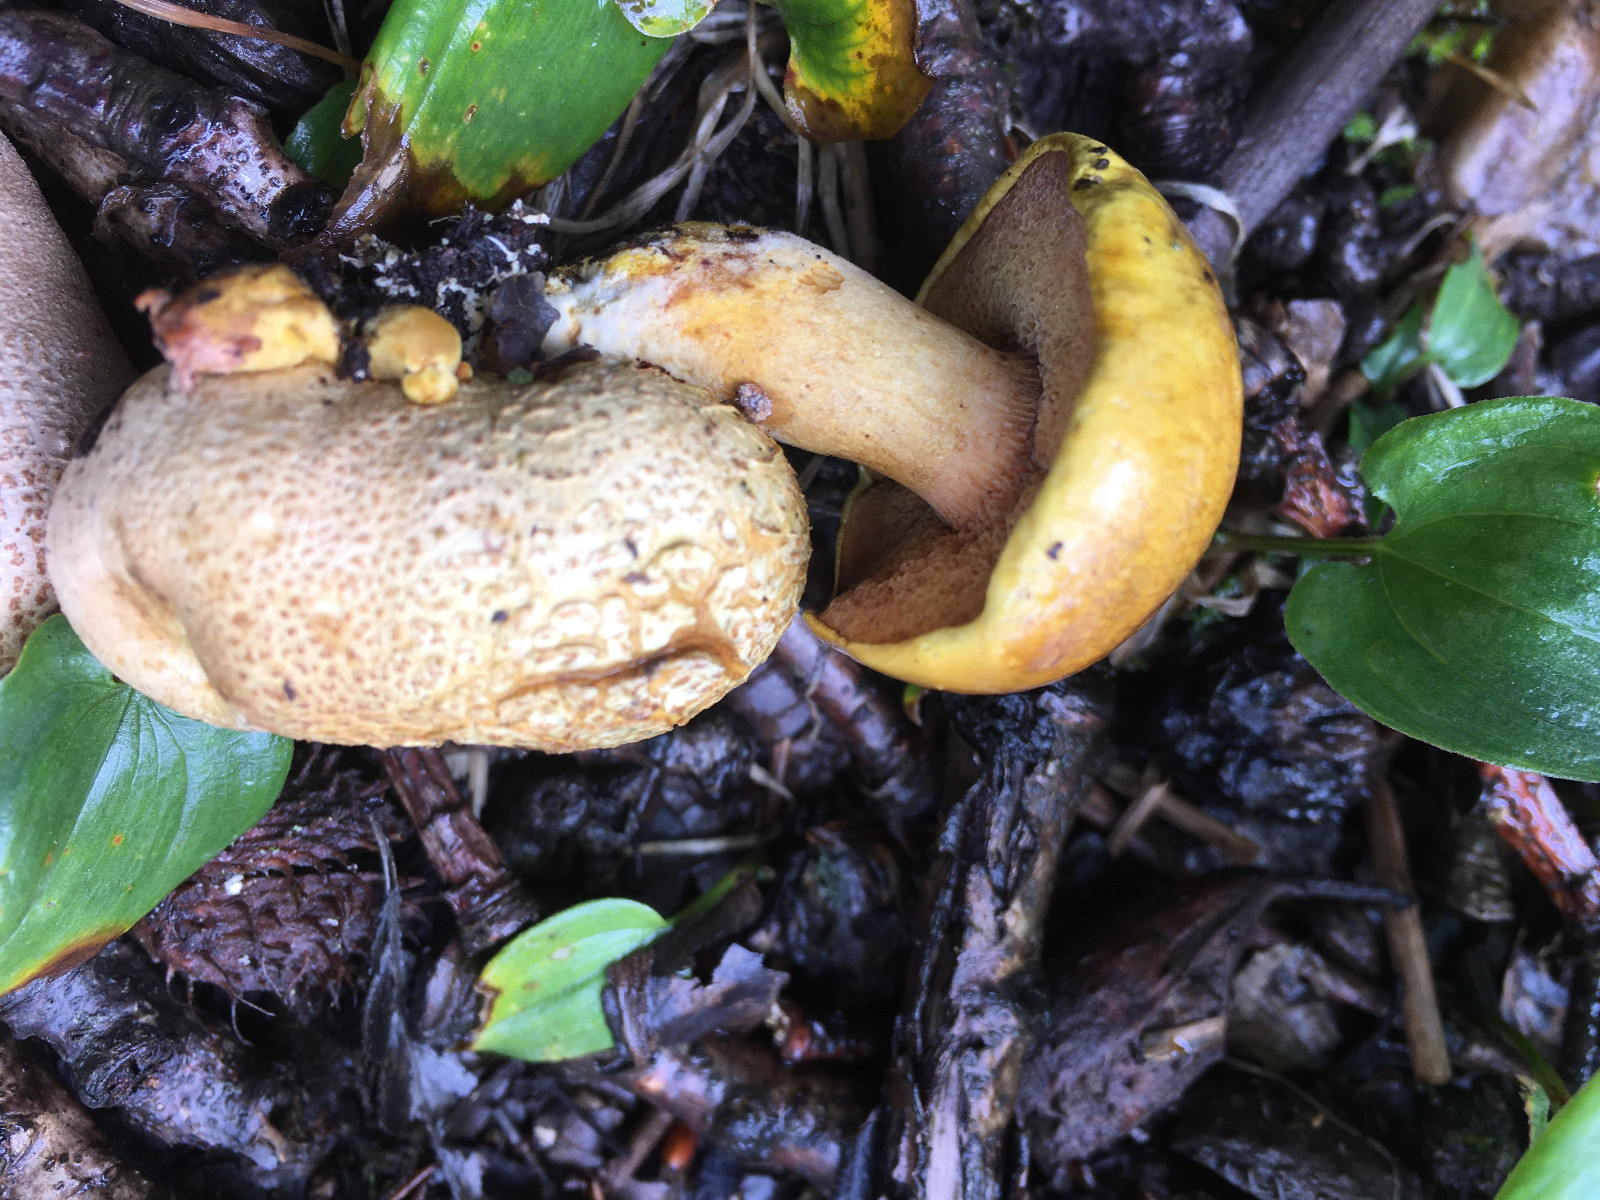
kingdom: Fungi
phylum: Basidiomycota
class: Agaricomycetes
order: Boletales
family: Boletaceae
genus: Pseudoboletus
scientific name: Pseudoboletus parasiticus
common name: snyltende rørhat
